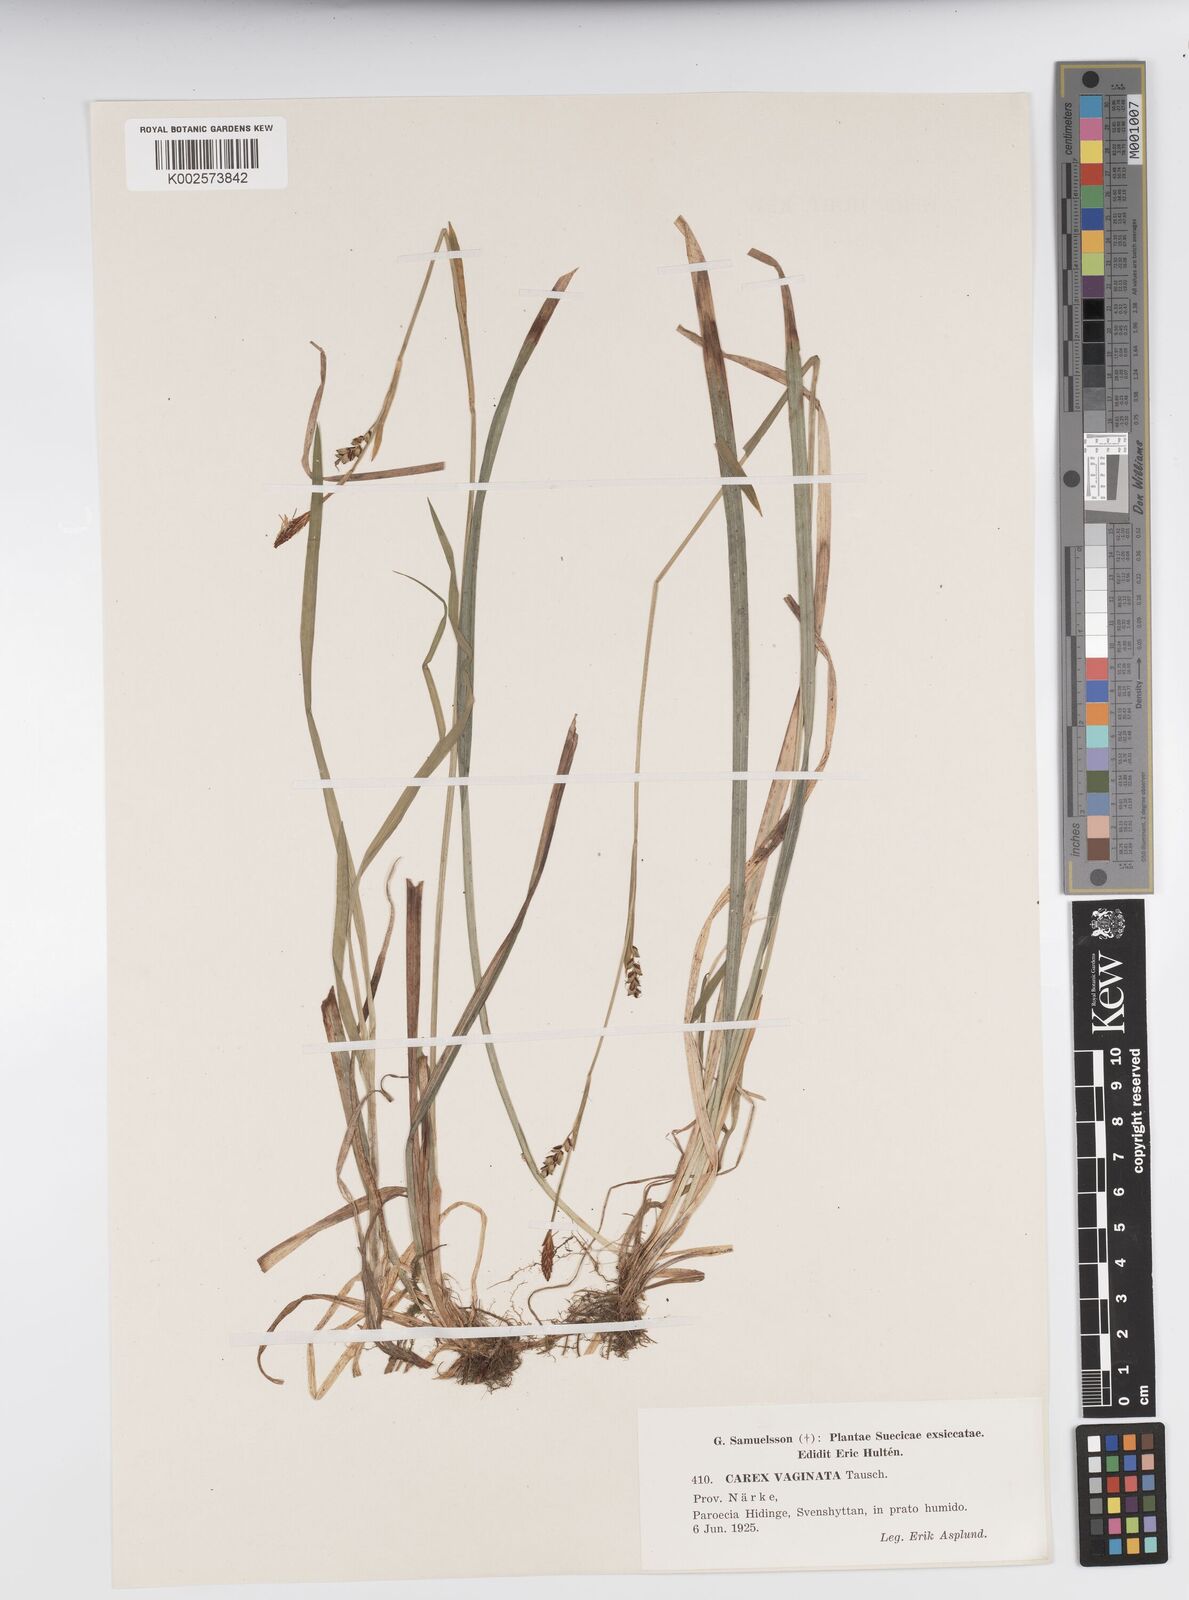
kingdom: Plantae
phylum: Tracheophyta
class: Liliopsida
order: Poales
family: Cyperaceae
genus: Carex
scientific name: Carex vaginata
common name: Sheathed sedge
